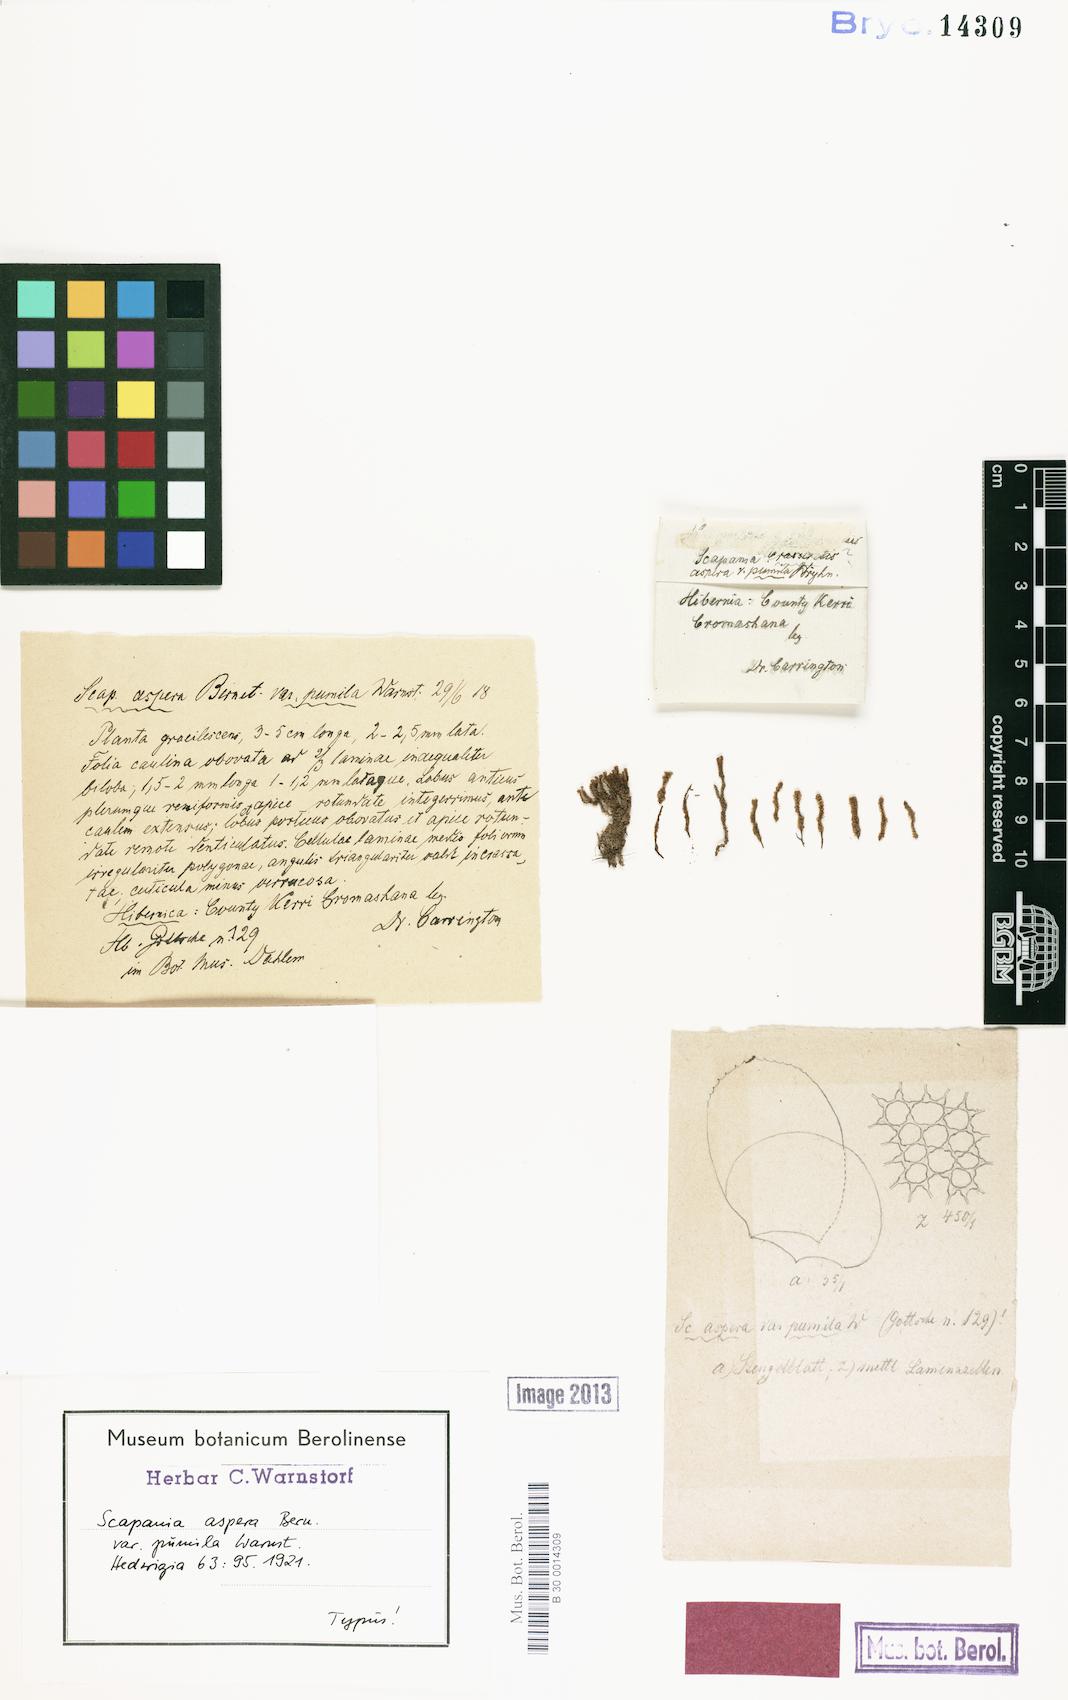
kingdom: Plantae
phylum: Marchantiophyta
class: Jungermanniopsida
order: Jungermanniales
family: Scapaniaceae
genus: Scapania
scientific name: Scapania aspera
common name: Rough earwort
